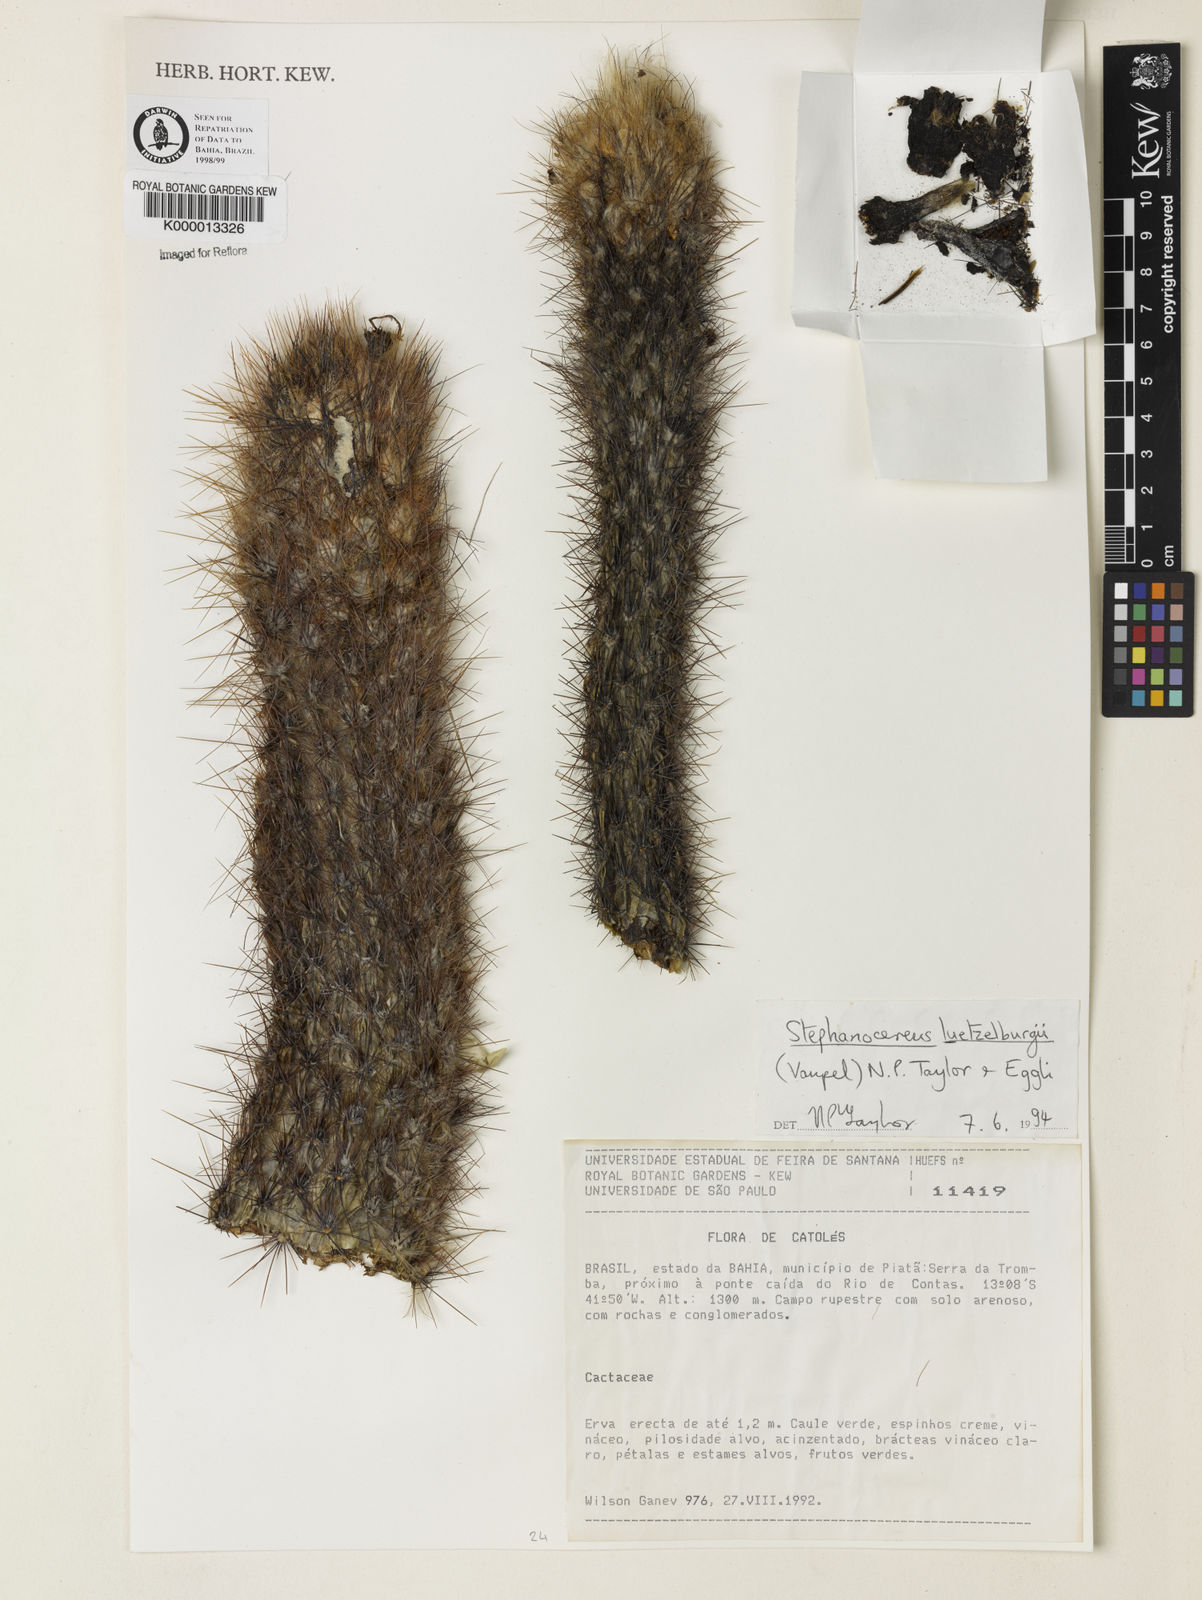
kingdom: Plantae
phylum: Tracheophyta
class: Magnoliopsida
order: Caryophyllales
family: Cactaceae
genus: Lagenosocereus
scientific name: Lagenosocereus luetzelburgii
